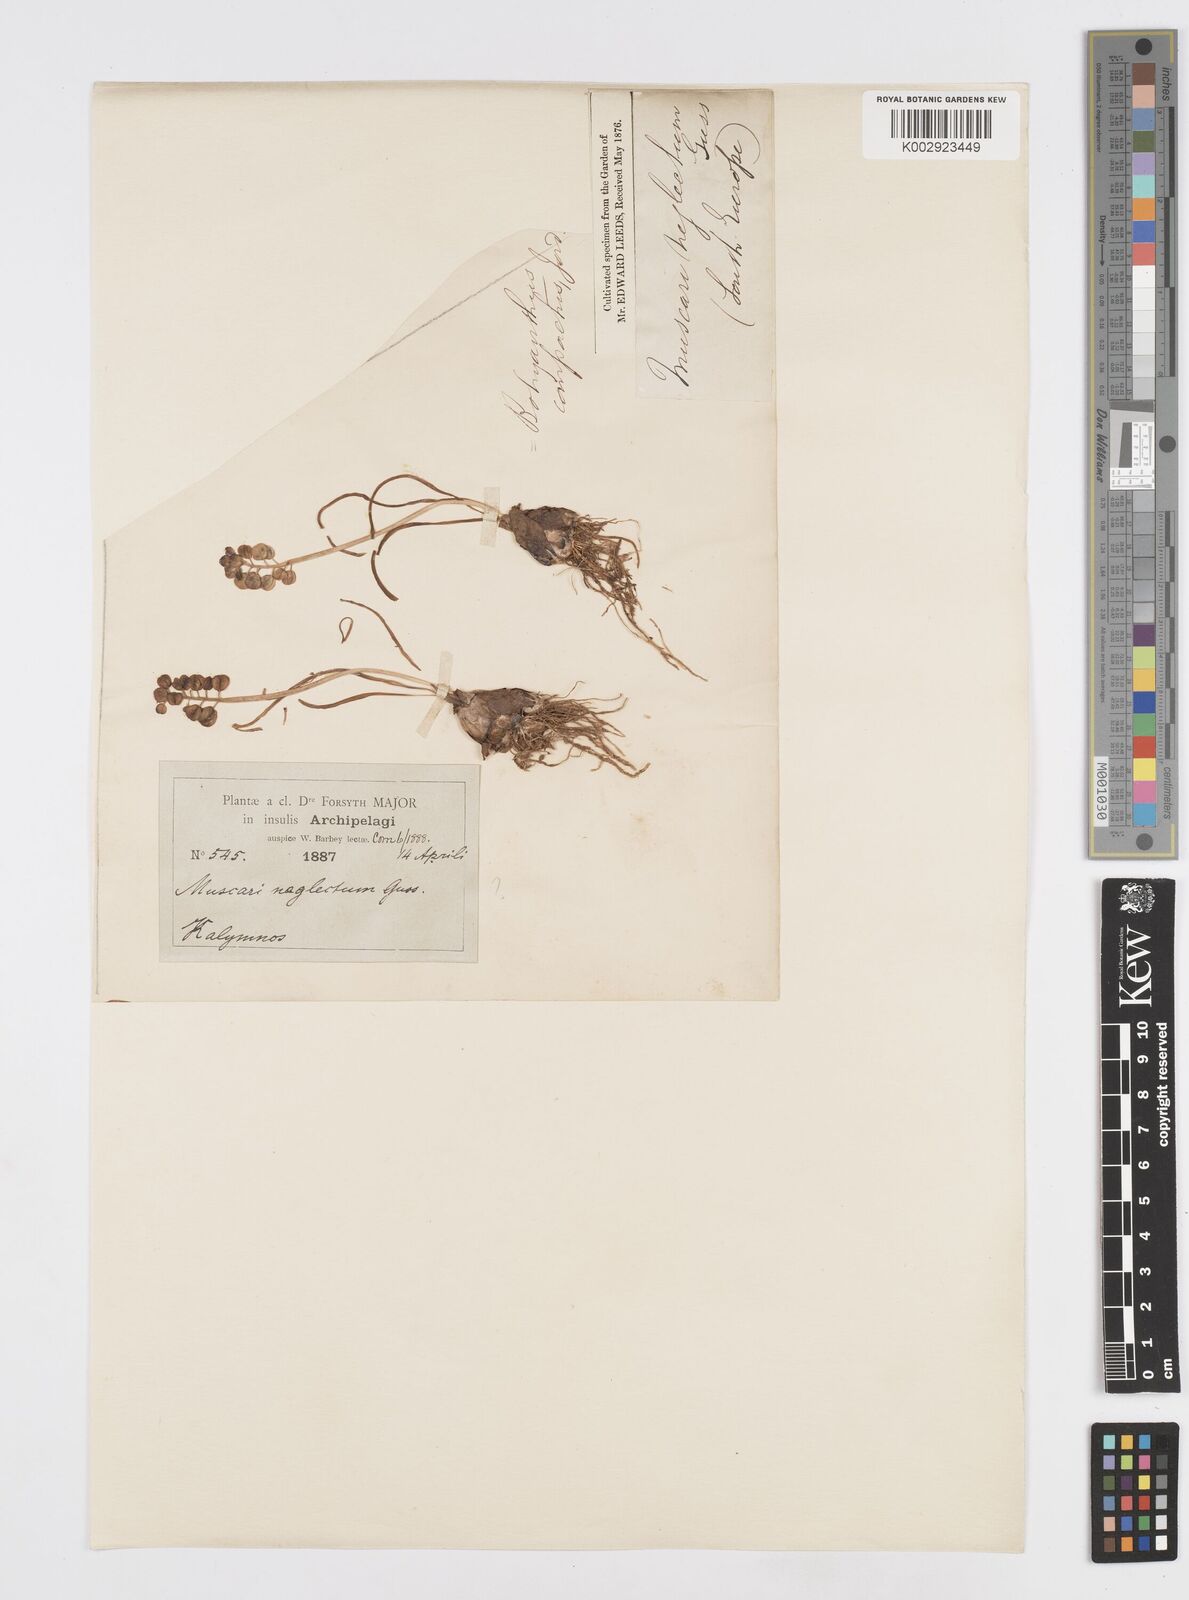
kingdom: Plantae
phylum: Tracheophyta
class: Liliopsida
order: Asparagales
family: Asparagaceae
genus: Muscari
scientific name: Muscari neglectum
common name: Grape-hyacinth
